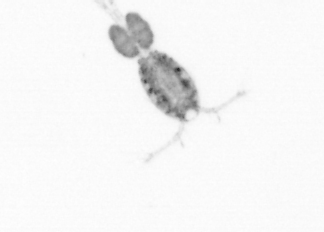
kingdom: Animalia
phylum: Arthropoda
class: Copepoda
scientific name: Copepoda
